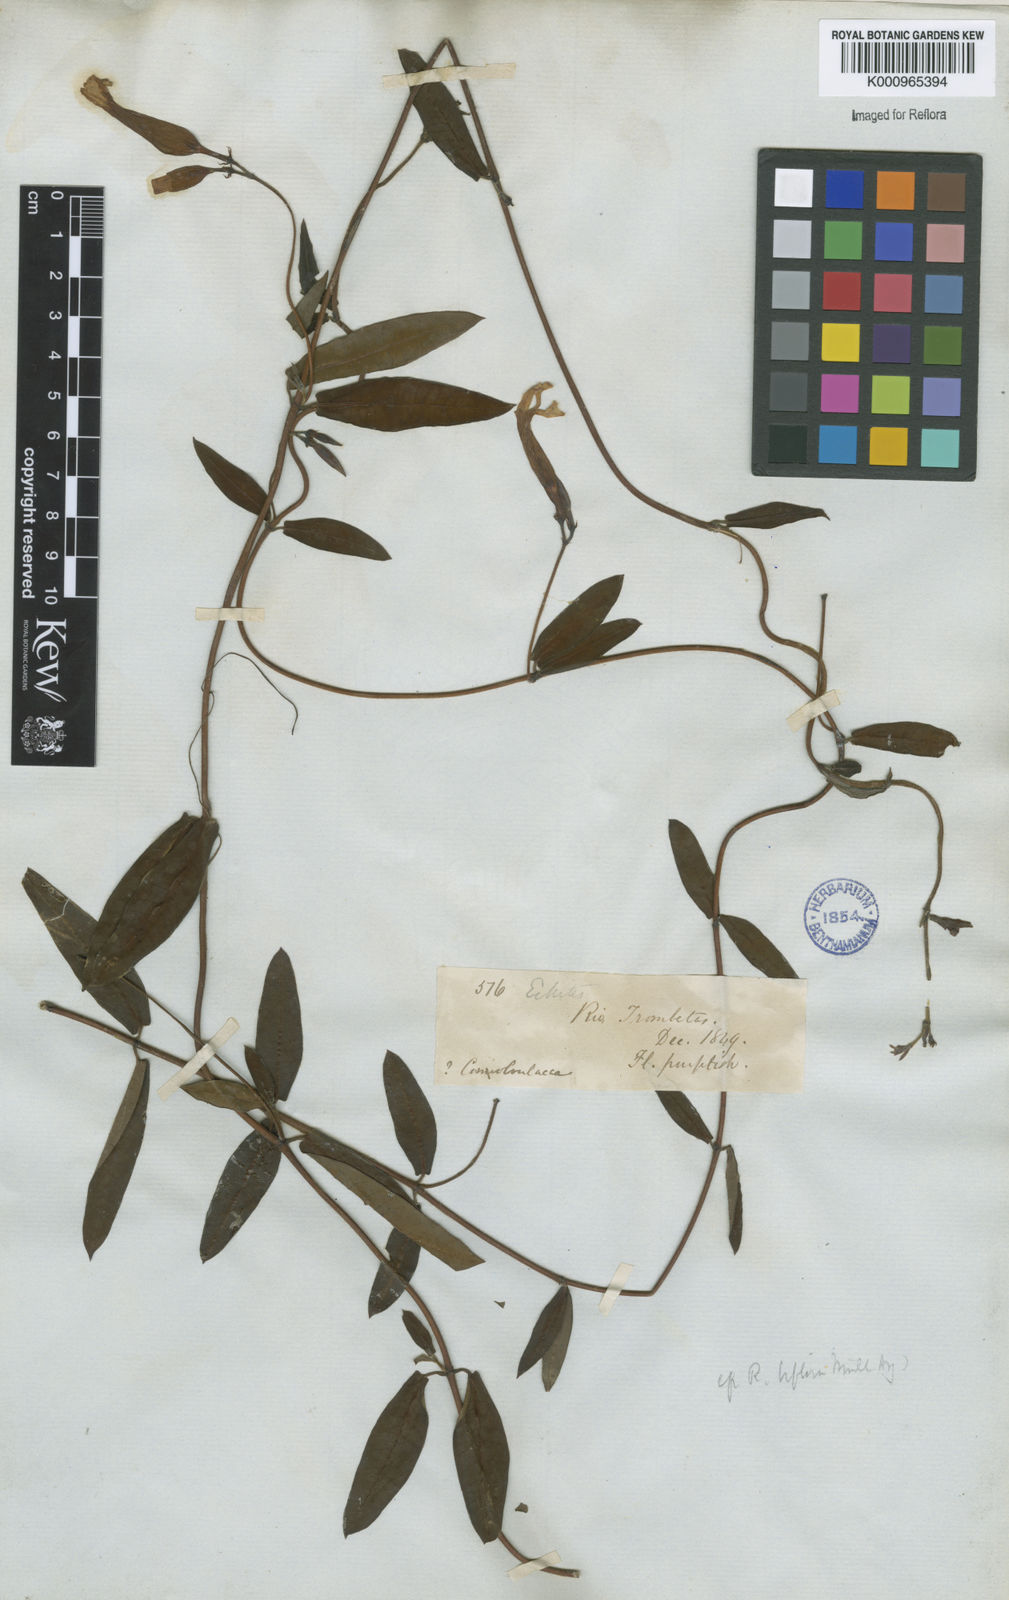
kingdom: Plantae
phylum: Tracheophyta
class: Magnoliopsida
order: Gentianales
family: Apocynaceae
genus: Rhabdadenia
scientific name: Rhabdadenia madida
